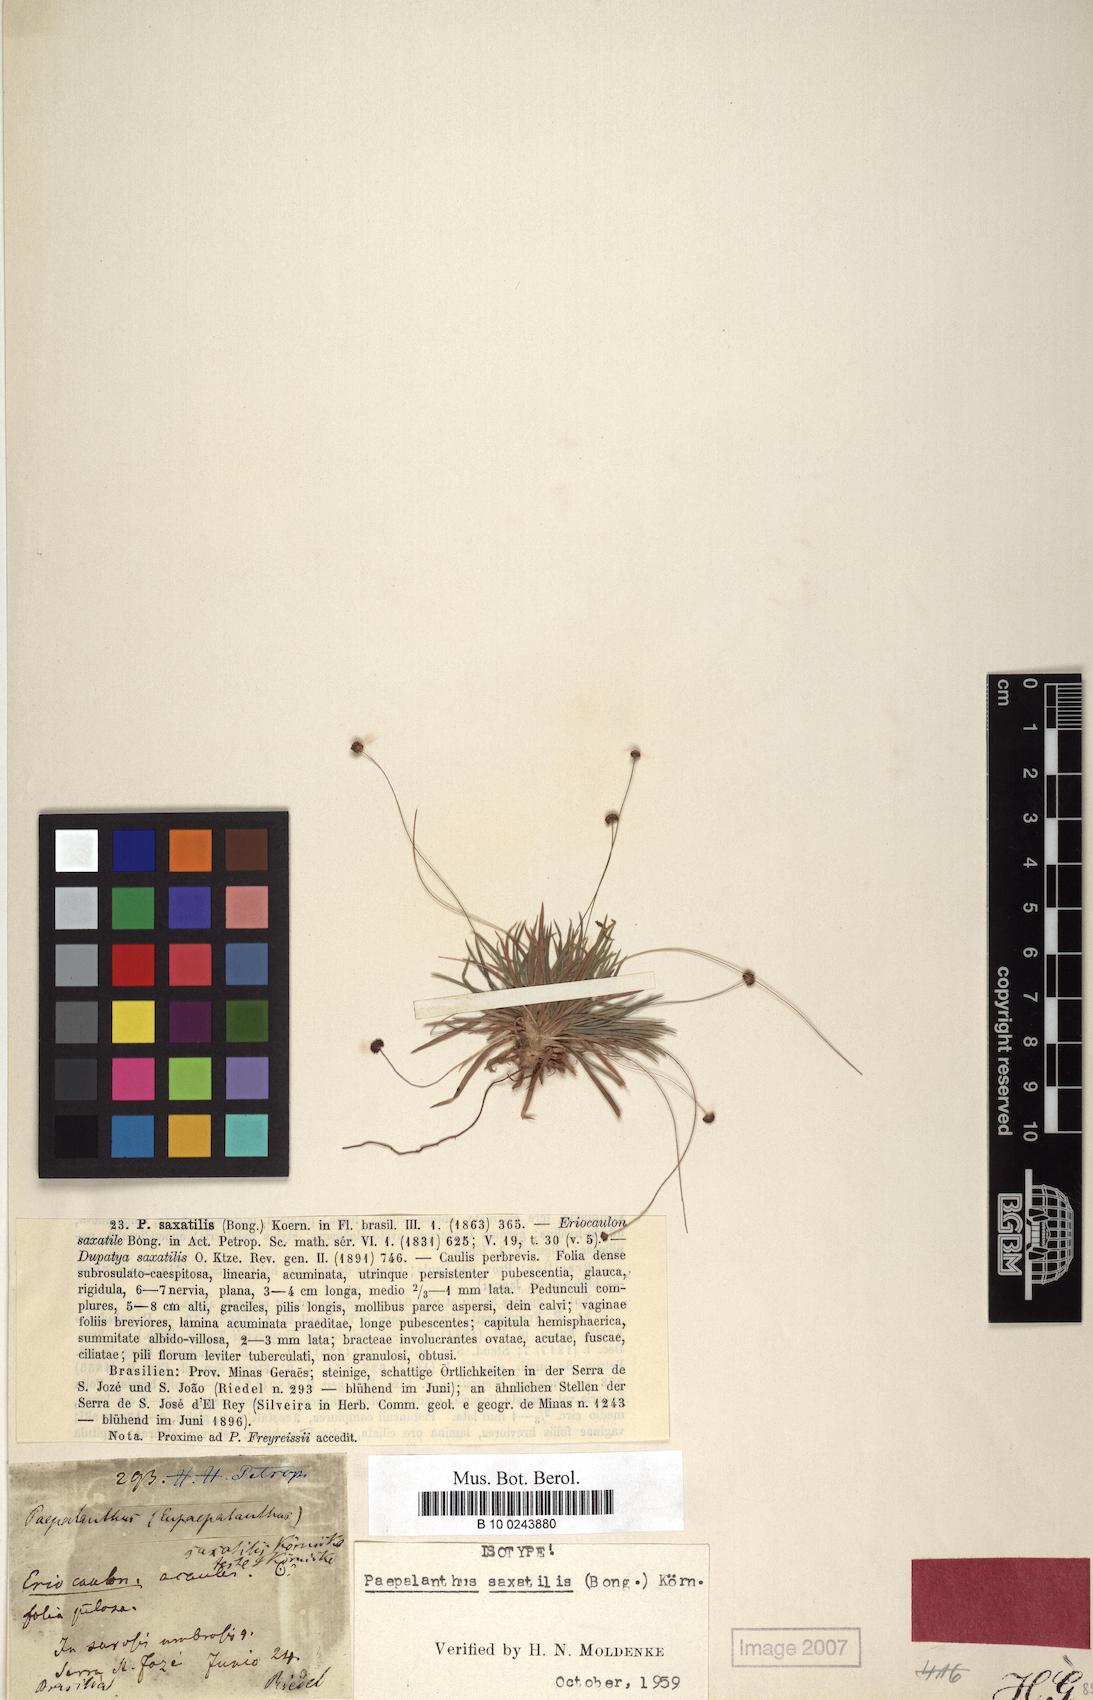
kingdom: Plantae
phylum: Tracheophyta
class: Liliopsida
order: Poales
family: Eriocaulaceae
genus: Paepalanthus
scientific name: Paepalanthus saxatilis
